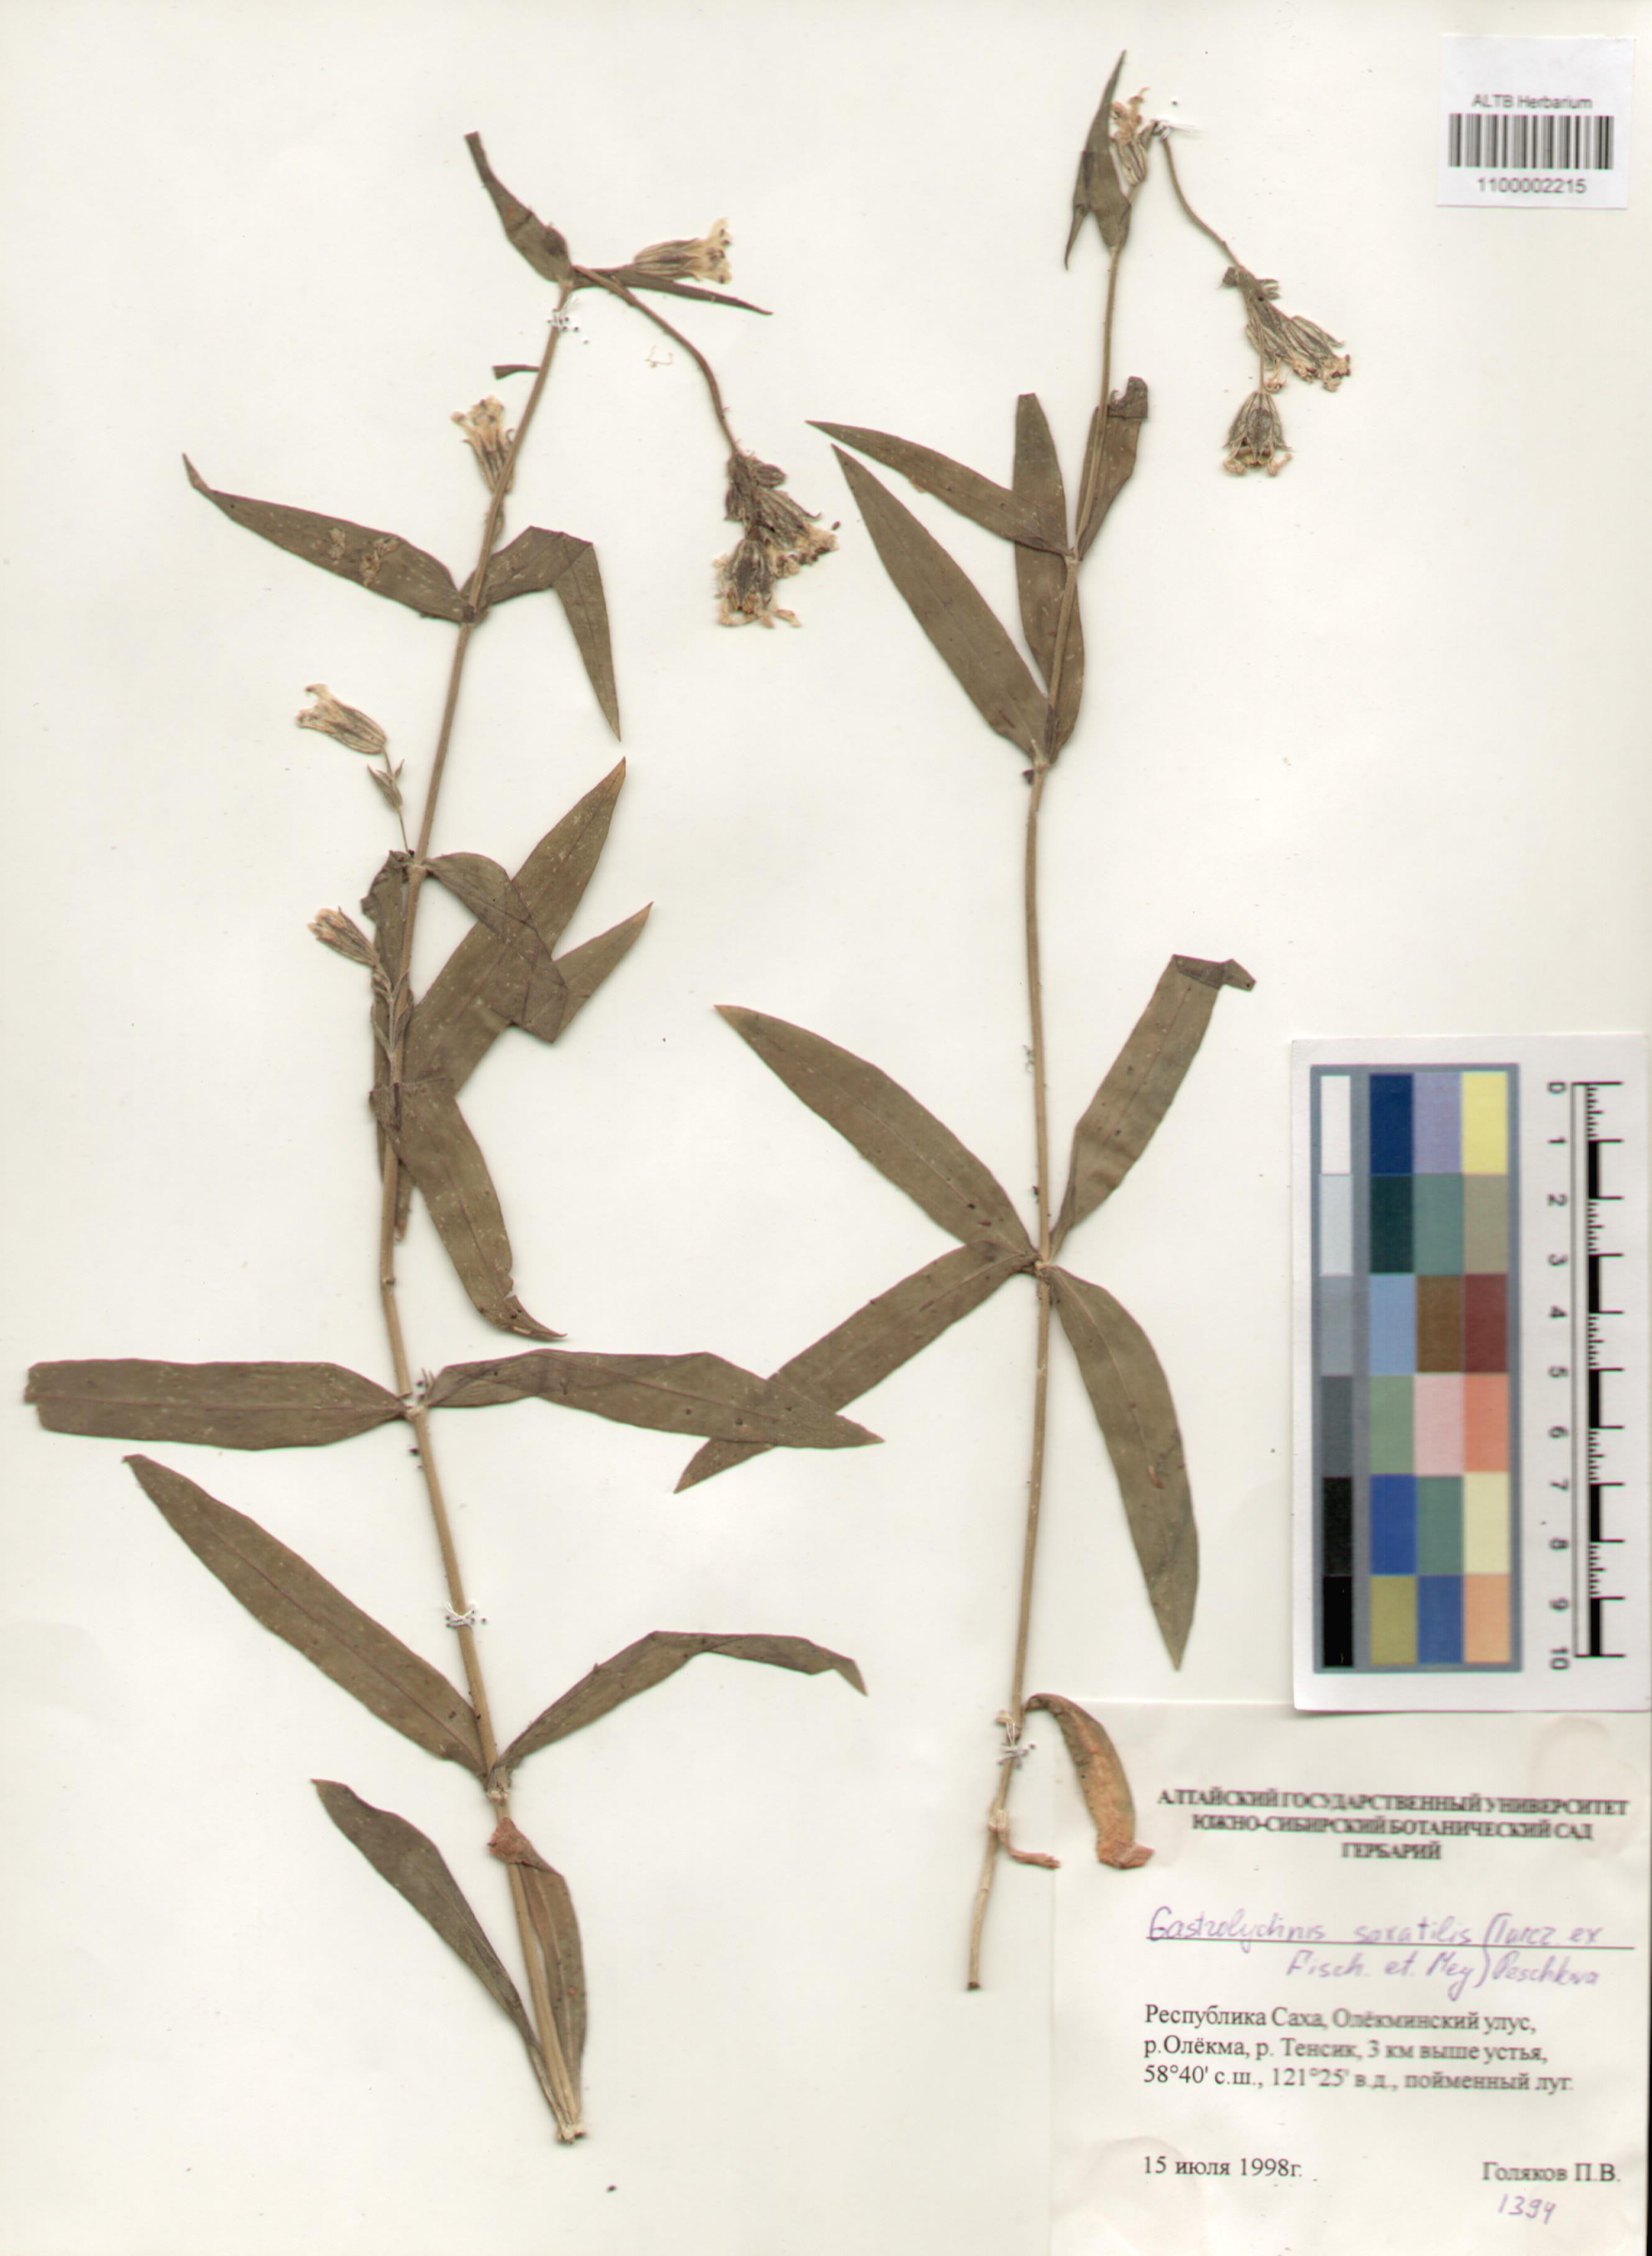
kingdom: Plantae
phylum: Tracheophyta
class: Magnoliopsida
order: Caryophyllales
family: Caryophyllaceae
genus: Silene
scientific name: Silene tolmatchevii
